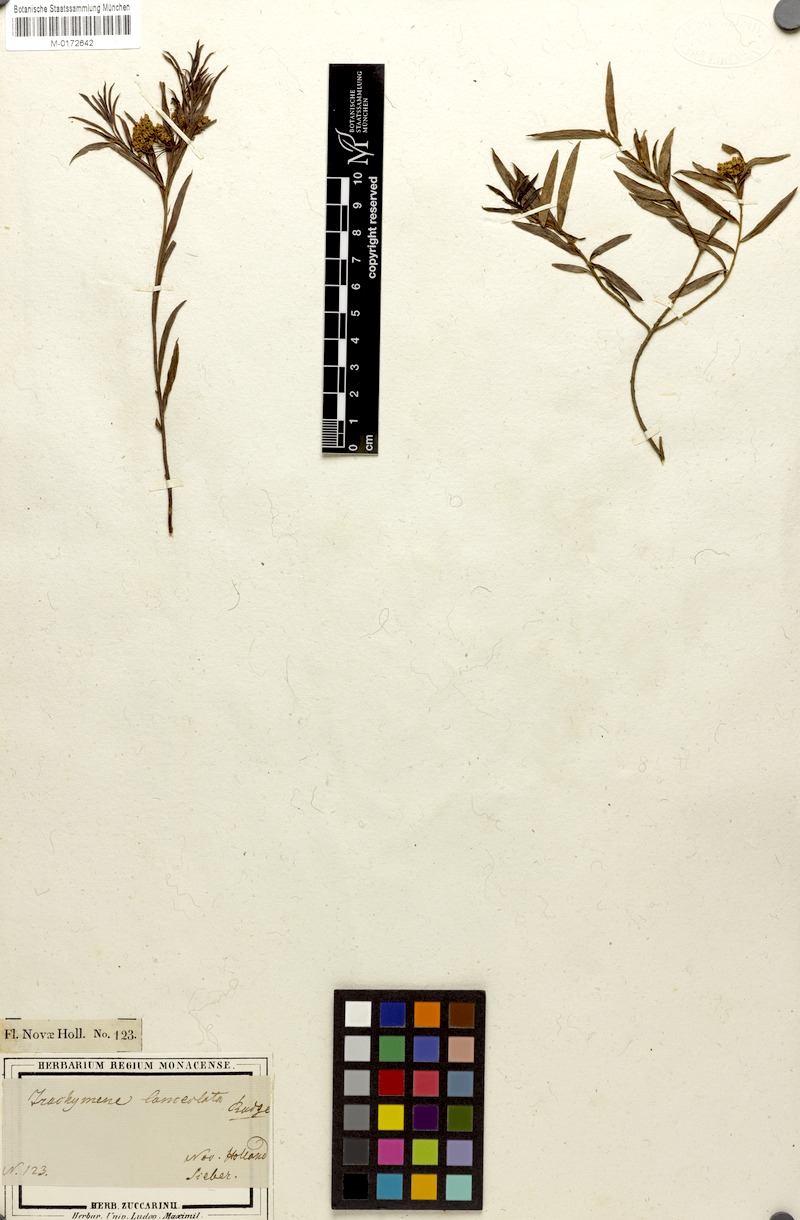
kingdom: Plantae
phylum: Tracheophyta
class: Magnoliopsida
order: Apiales
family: Apiaceae
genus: Platysace
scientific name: Platysace lanceolata
